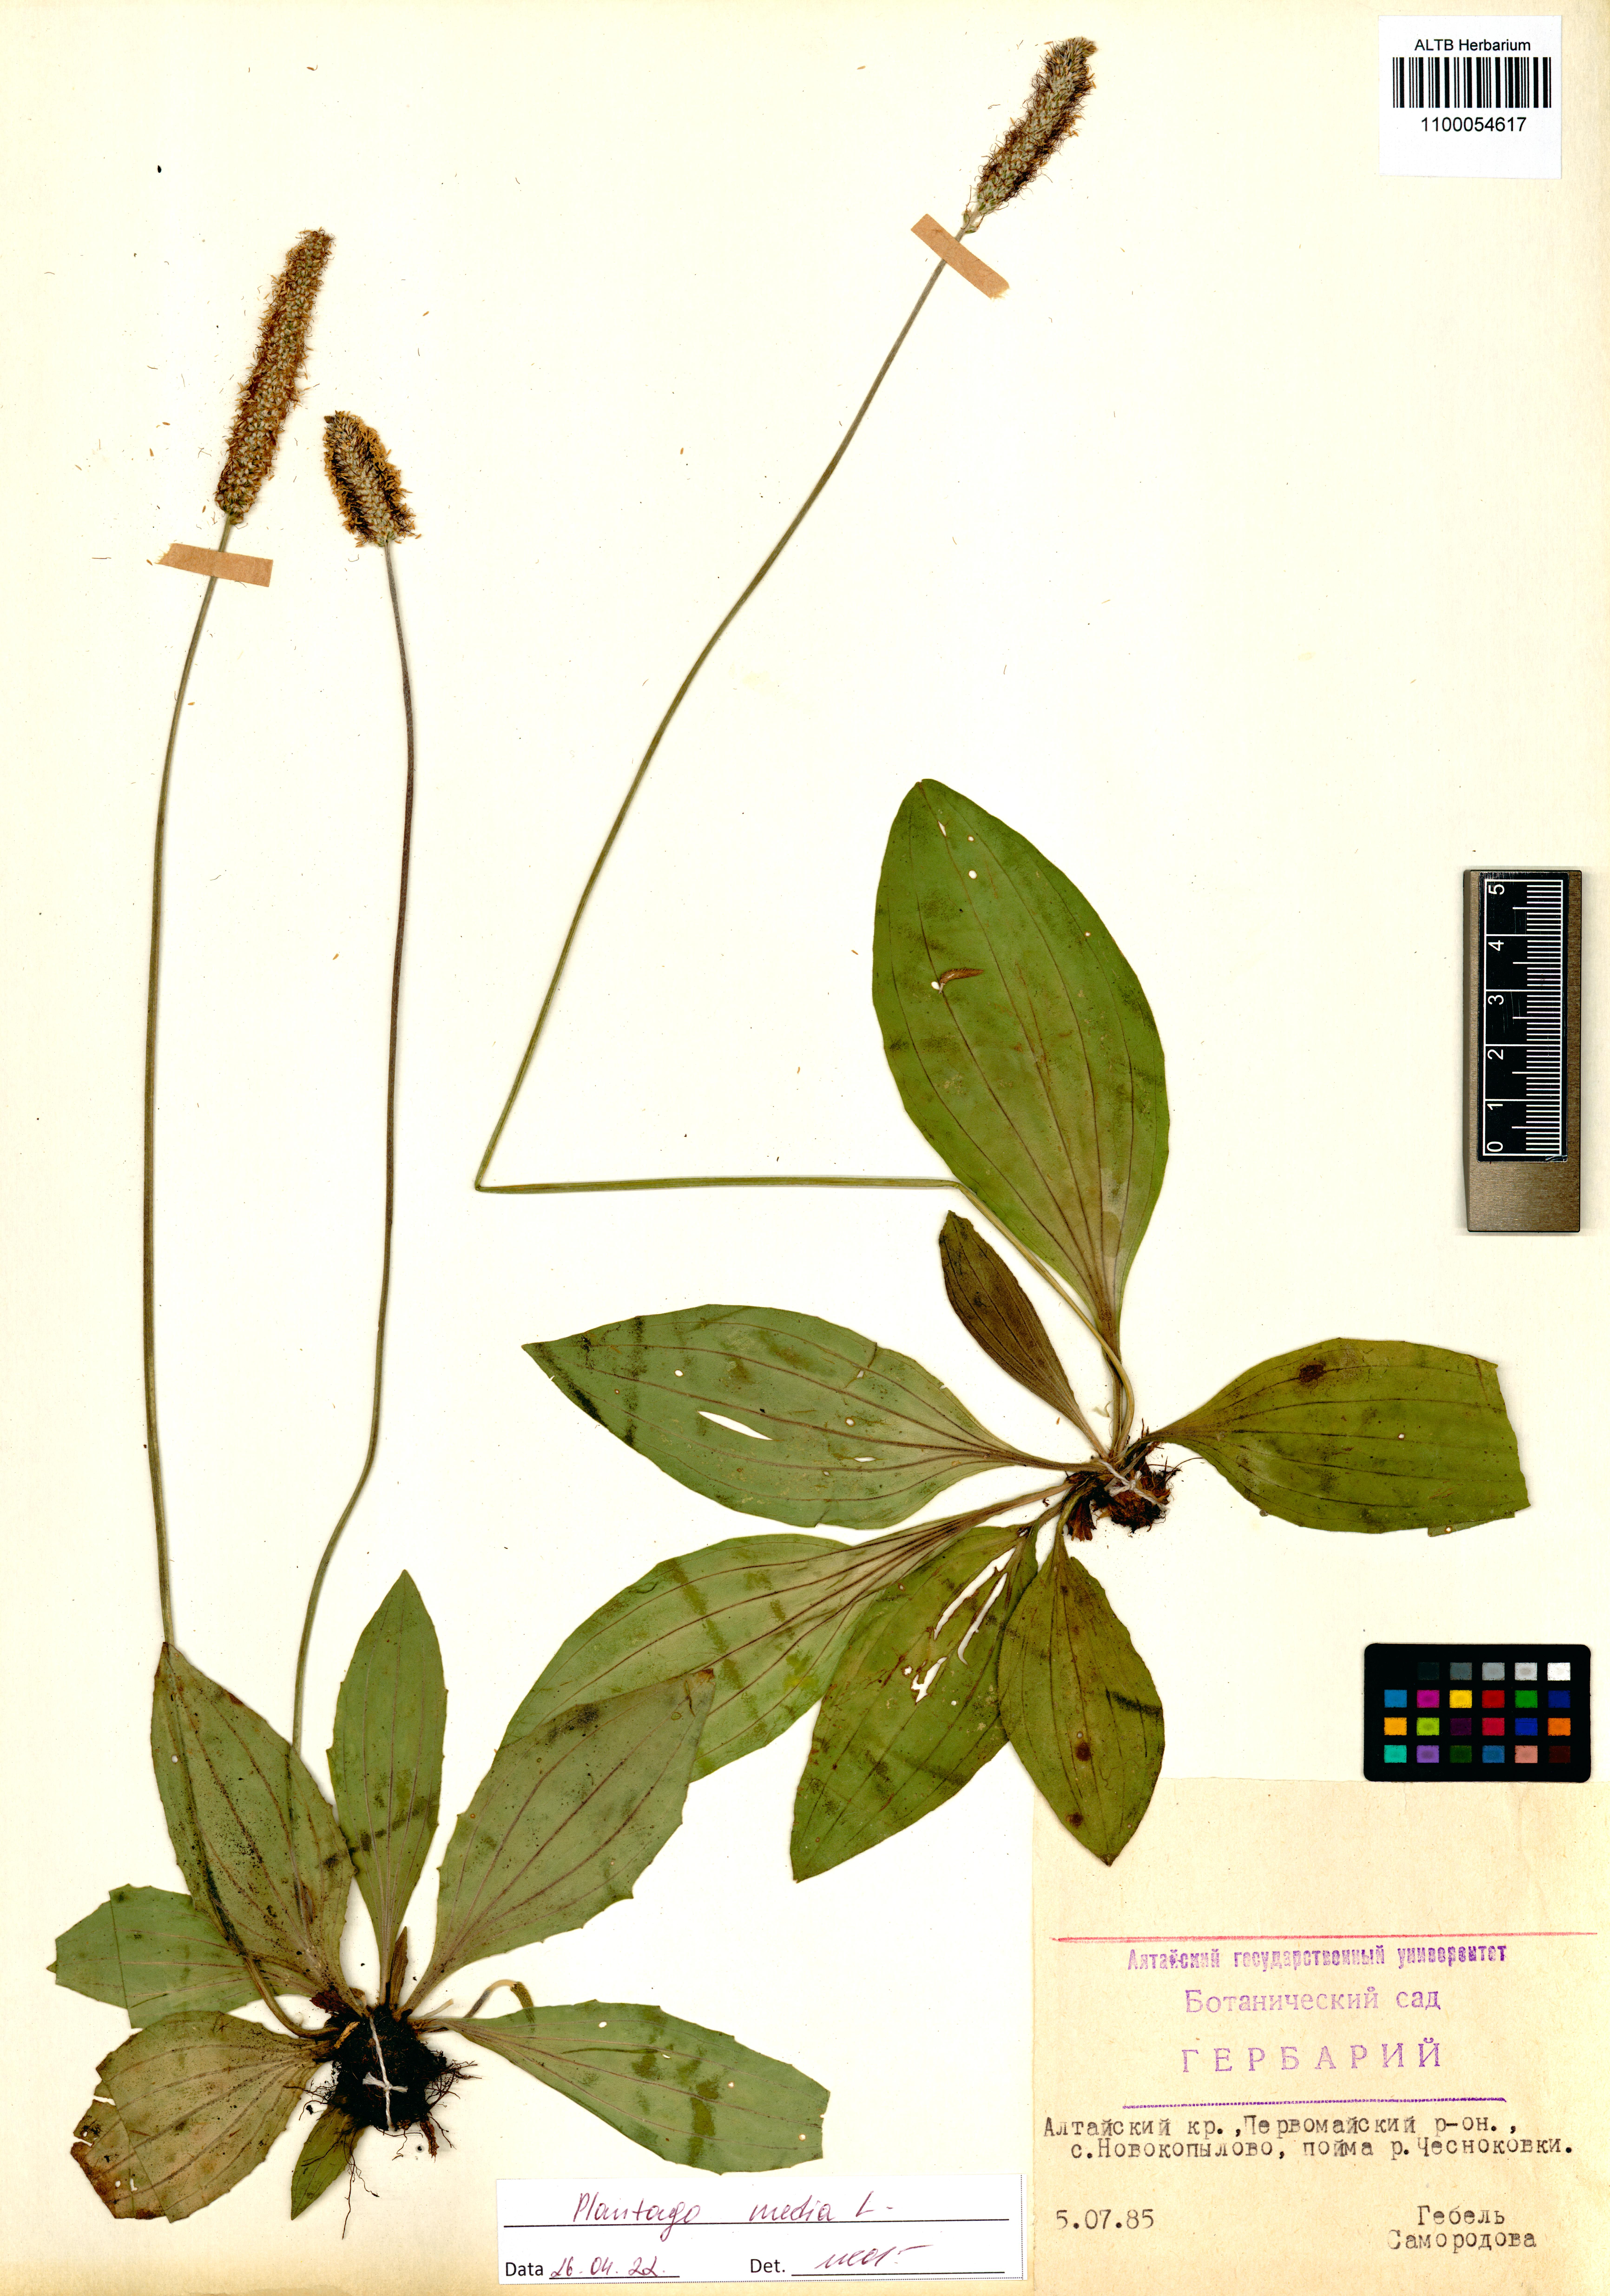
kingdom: Plantae
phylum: Tracheophyta
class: Magnoliopsida
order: Lamiales
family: Plantaginaceae
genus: Plantago
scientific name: Plantago media
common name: Hoary plantain
